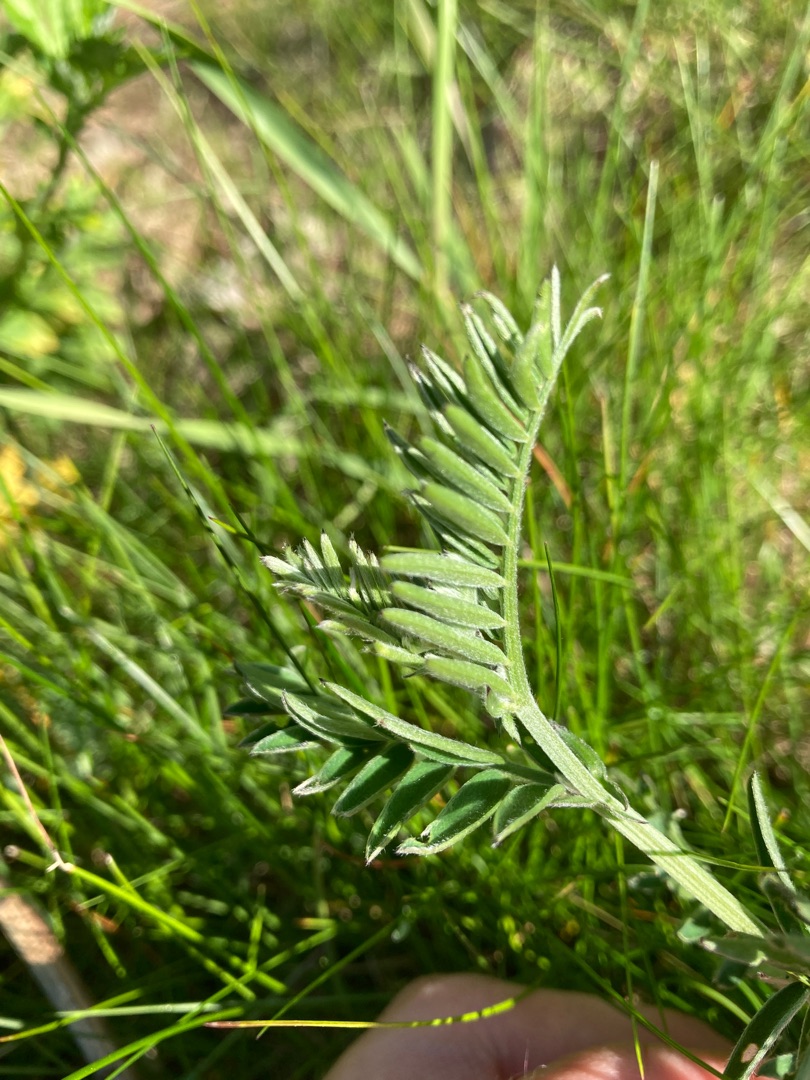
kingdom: Plantae
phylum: Tracheophyta
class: Magnoliopsida
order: Fabales
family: Fabaceae
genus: Vicia
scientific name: Vicia cracca
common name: Muse-vikke
